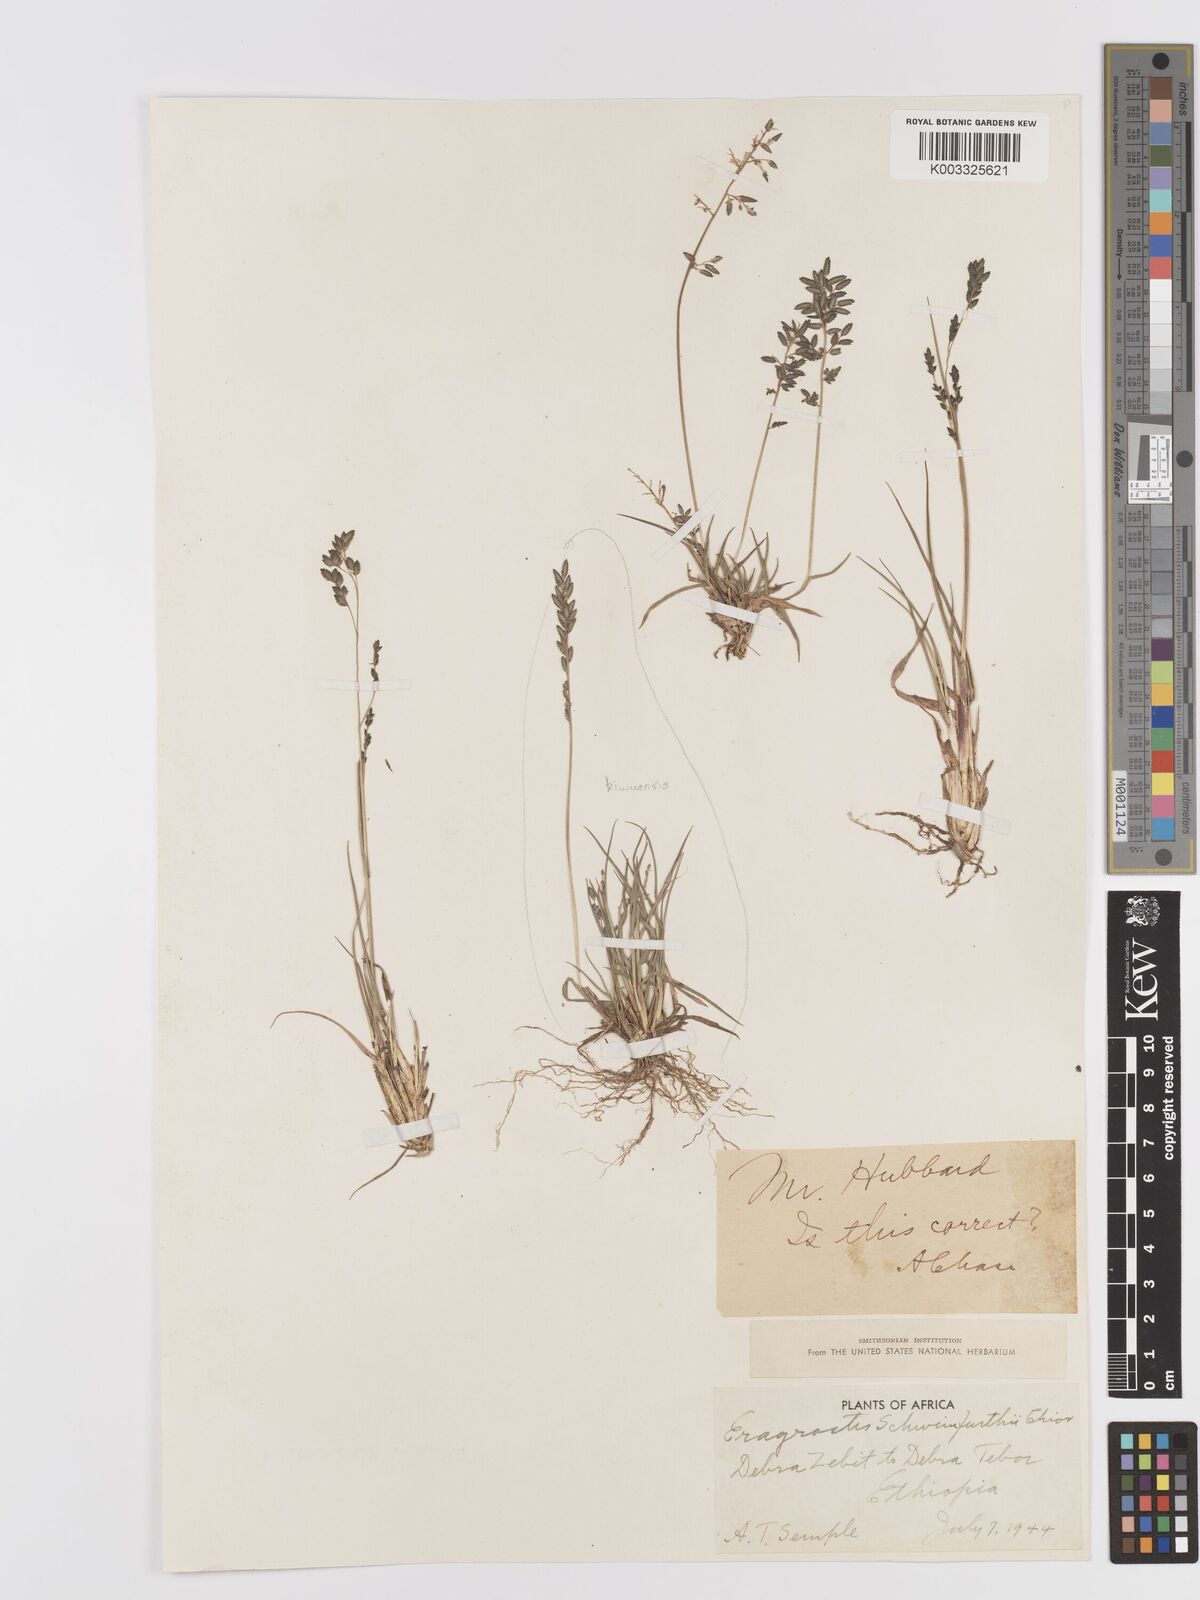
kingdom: Plantae
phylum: Tracheophyta
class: Liliopsida
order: Poales
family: Poaceae
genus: Eragrostis
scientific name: Eragrostis schweinfurthii
